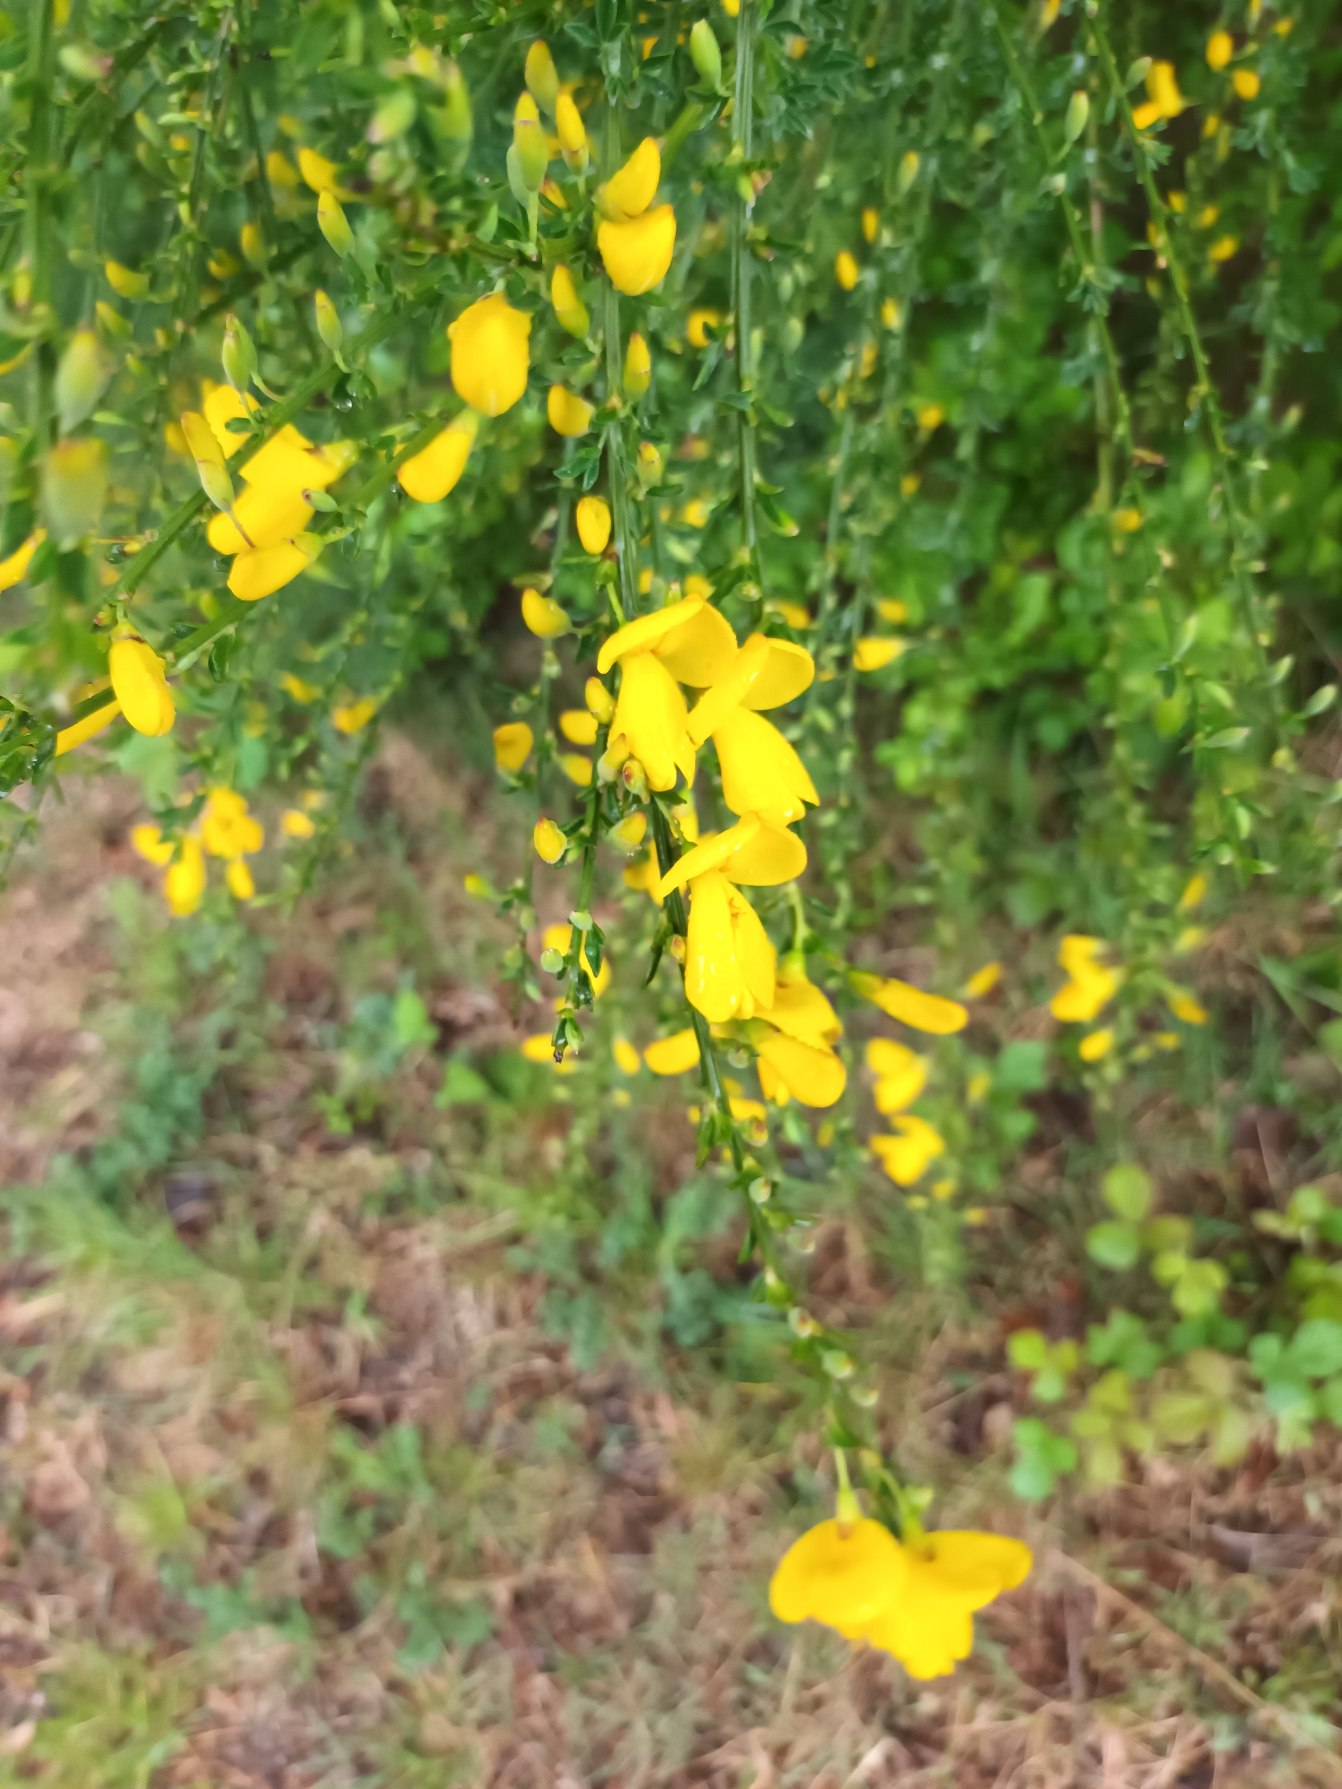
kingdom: Plantae
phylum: Tracheophyta
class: Magnoliopsida
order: Fabales
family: Fabaceae
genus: Cytisus
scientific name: Cytisus scoparius
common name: Almindelig gyvel
